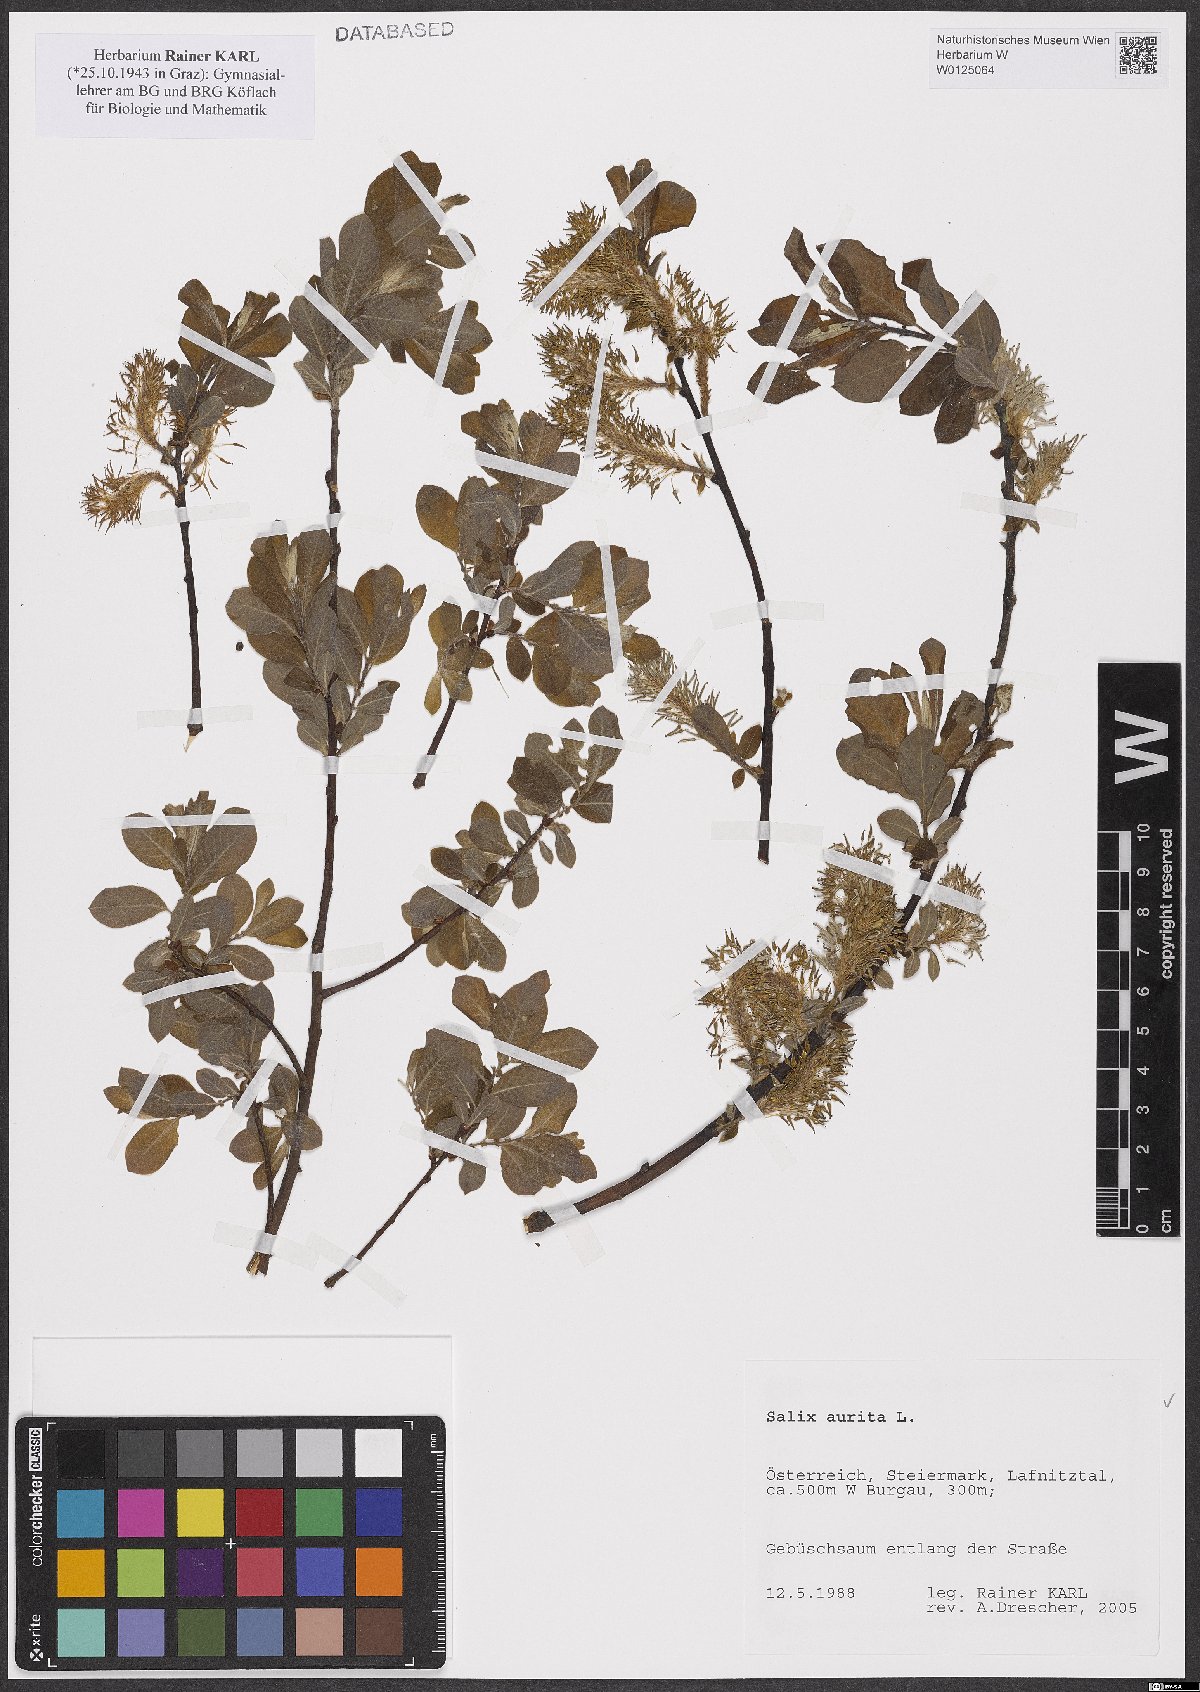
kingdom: Plantae
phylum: Tracheophyta
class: Magnoliopsida
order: Malpighiales
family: Salicaceae
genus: Salix
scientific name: Salix aurita
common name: Eared willow
